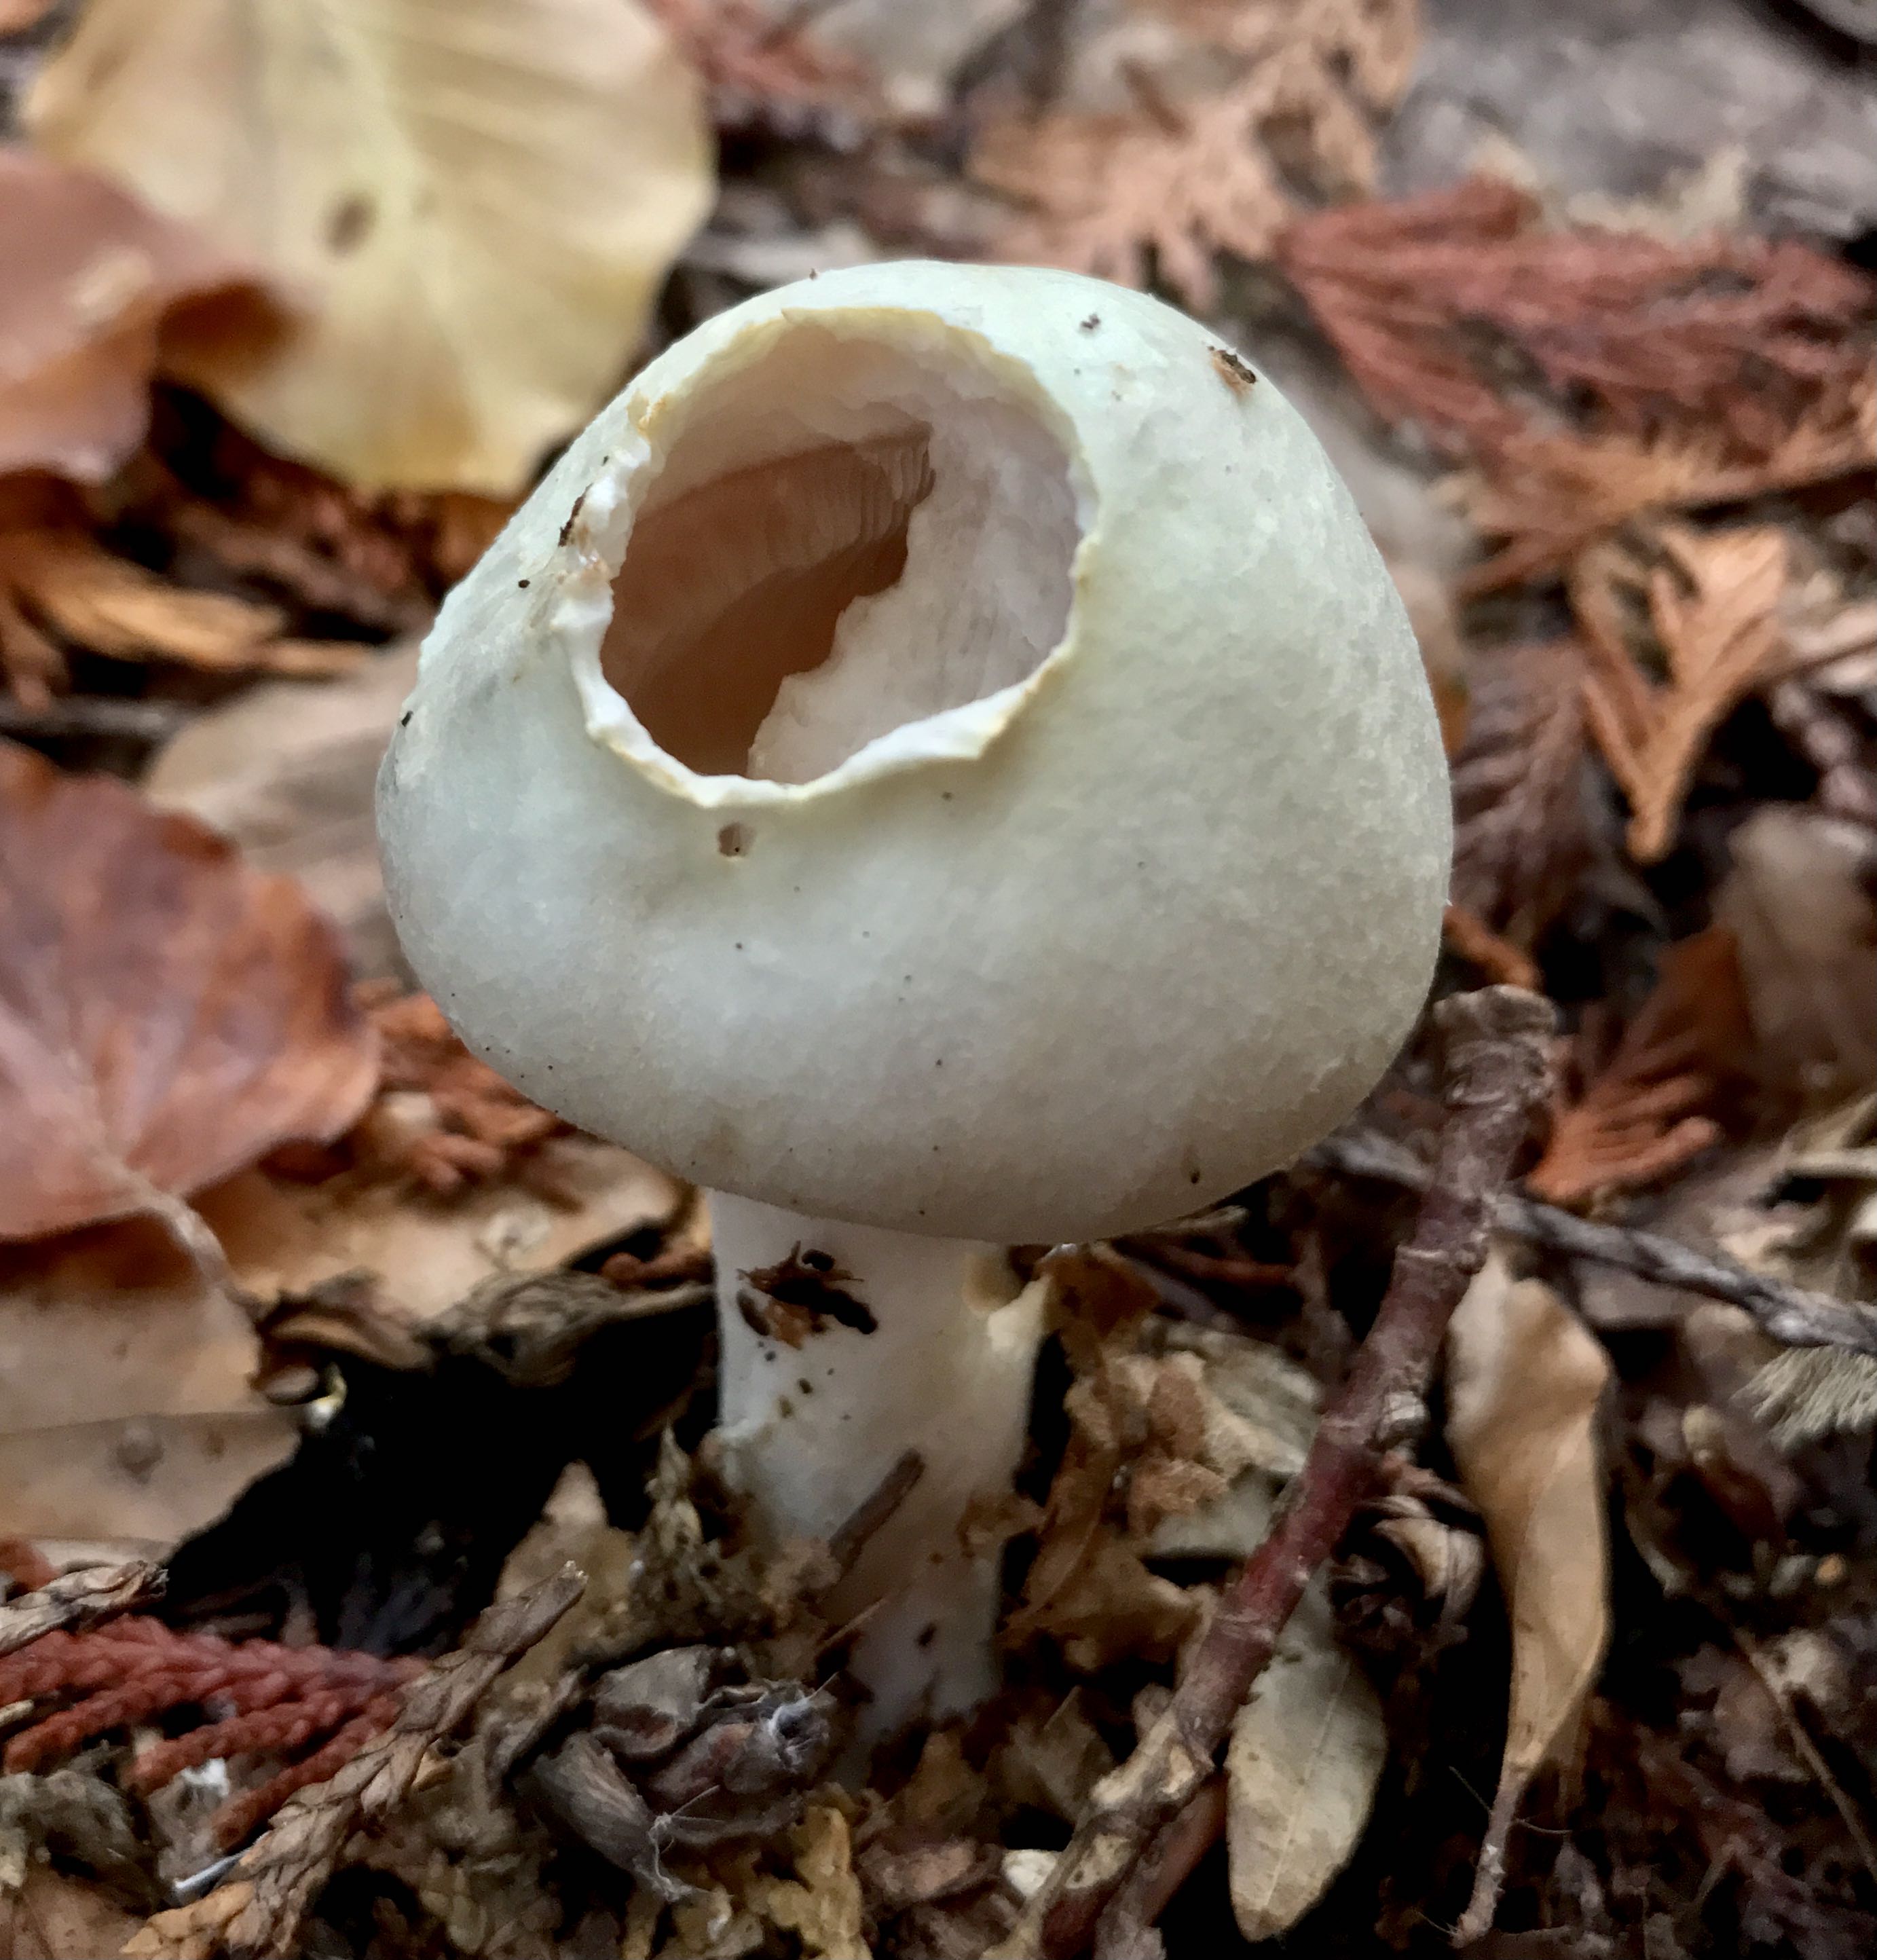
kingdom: Fungi
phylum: Basidiomycota
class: Agaricomycetes
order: Agaricales
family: Agaricaceae
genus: Agaricus
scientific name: Agaricus sylvicola
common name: gulhvid champignon
